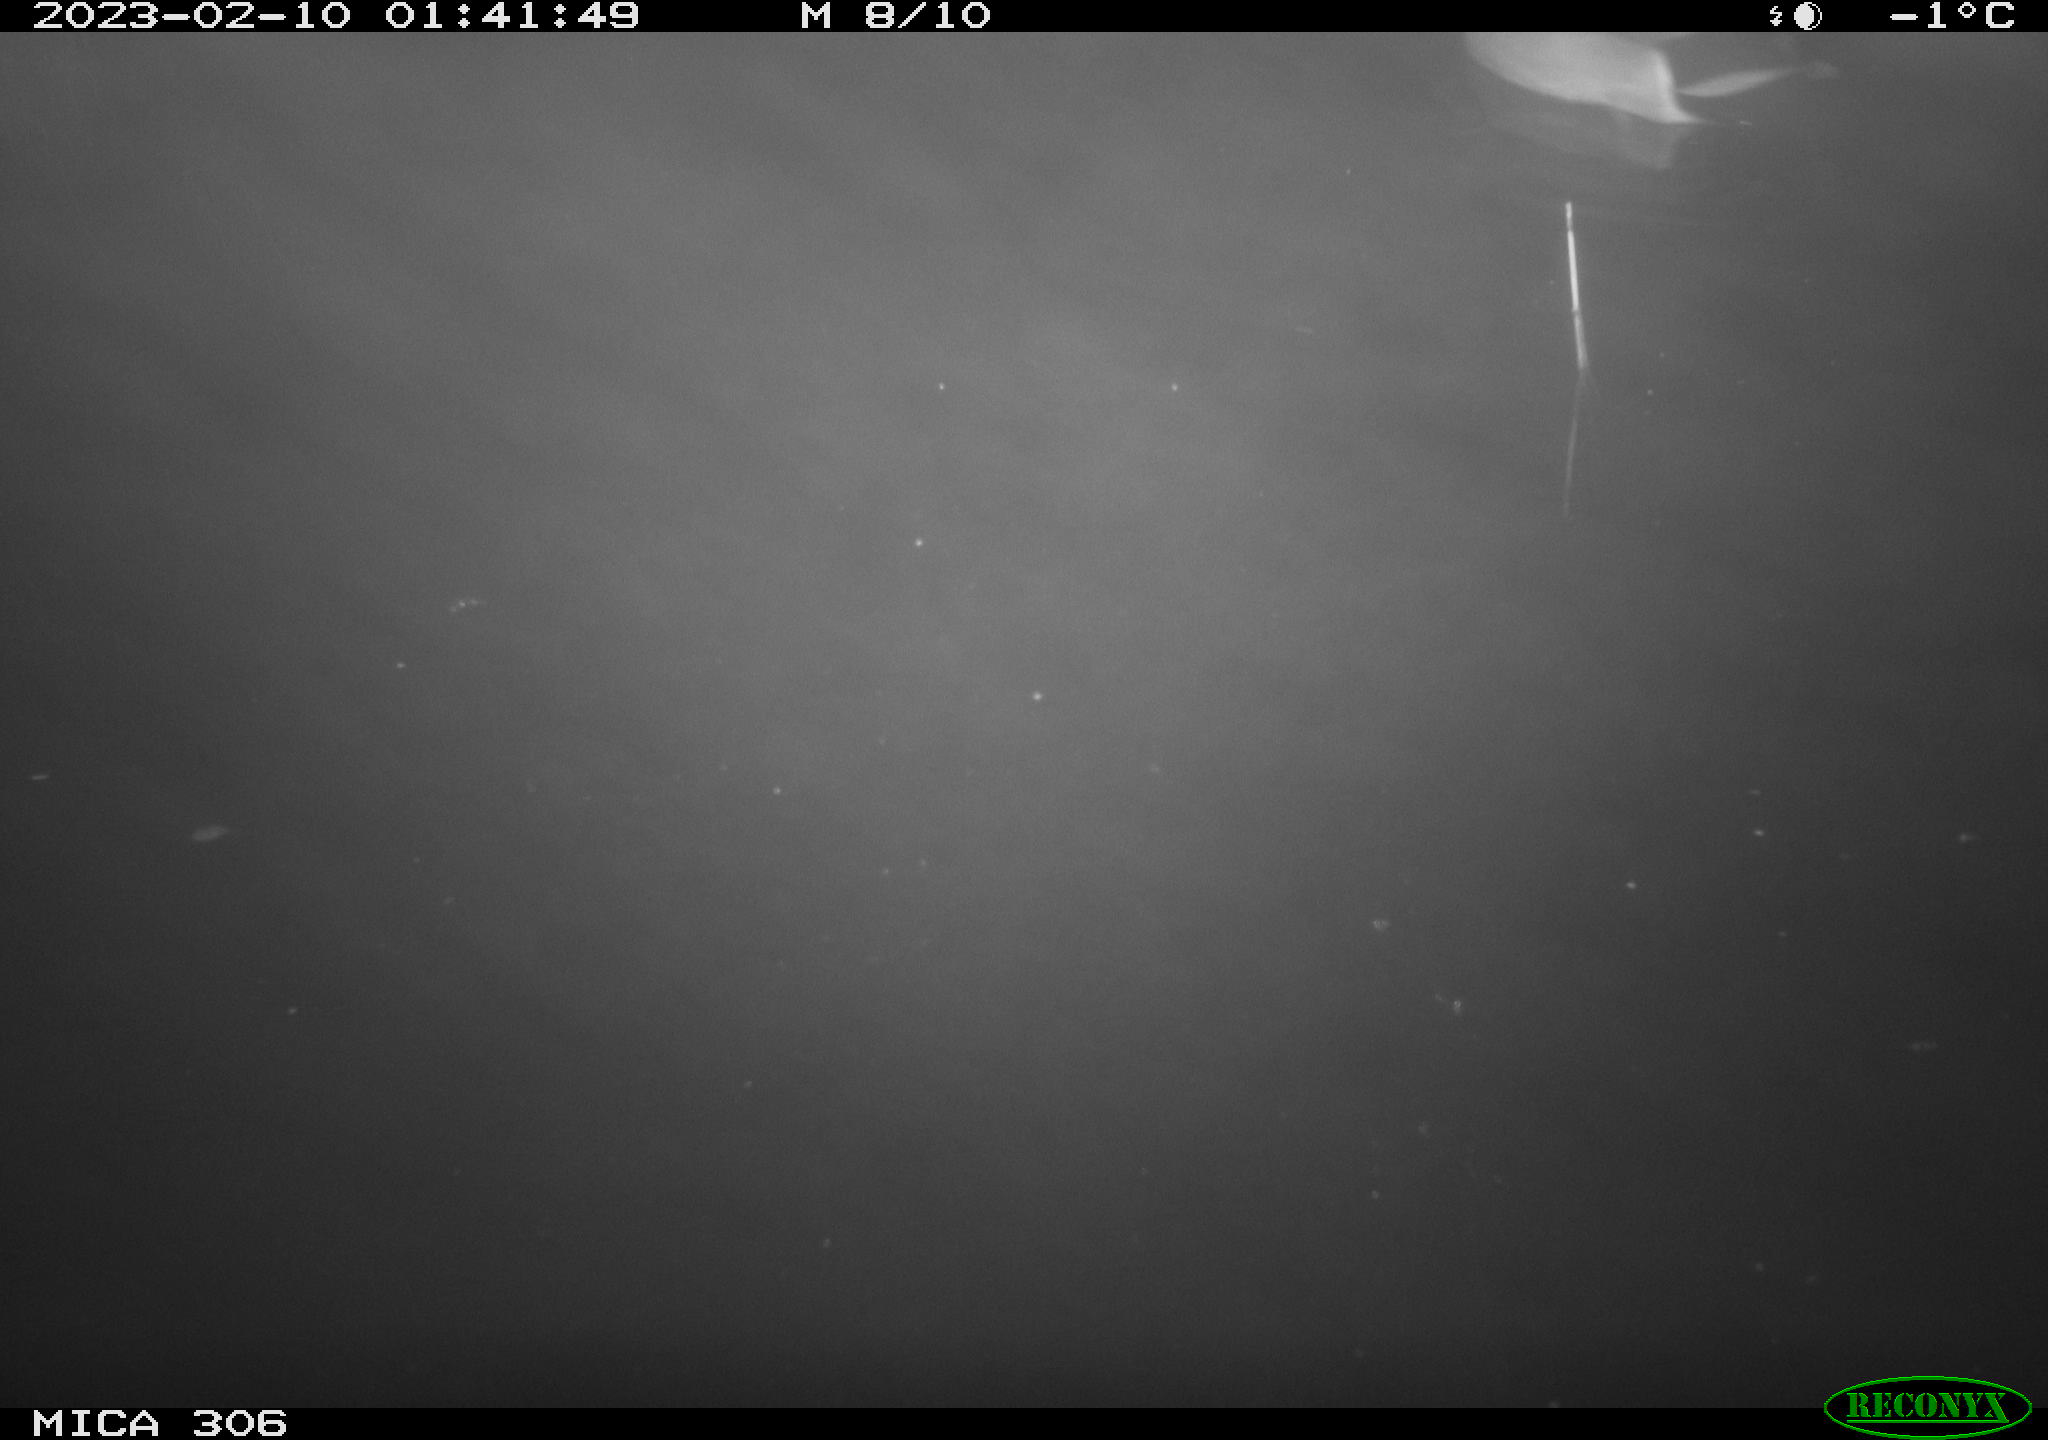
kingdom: Animalia
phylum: Chordata
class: Aves
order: Anseriformes
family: Anatidae
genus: Anas
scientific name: Anas
